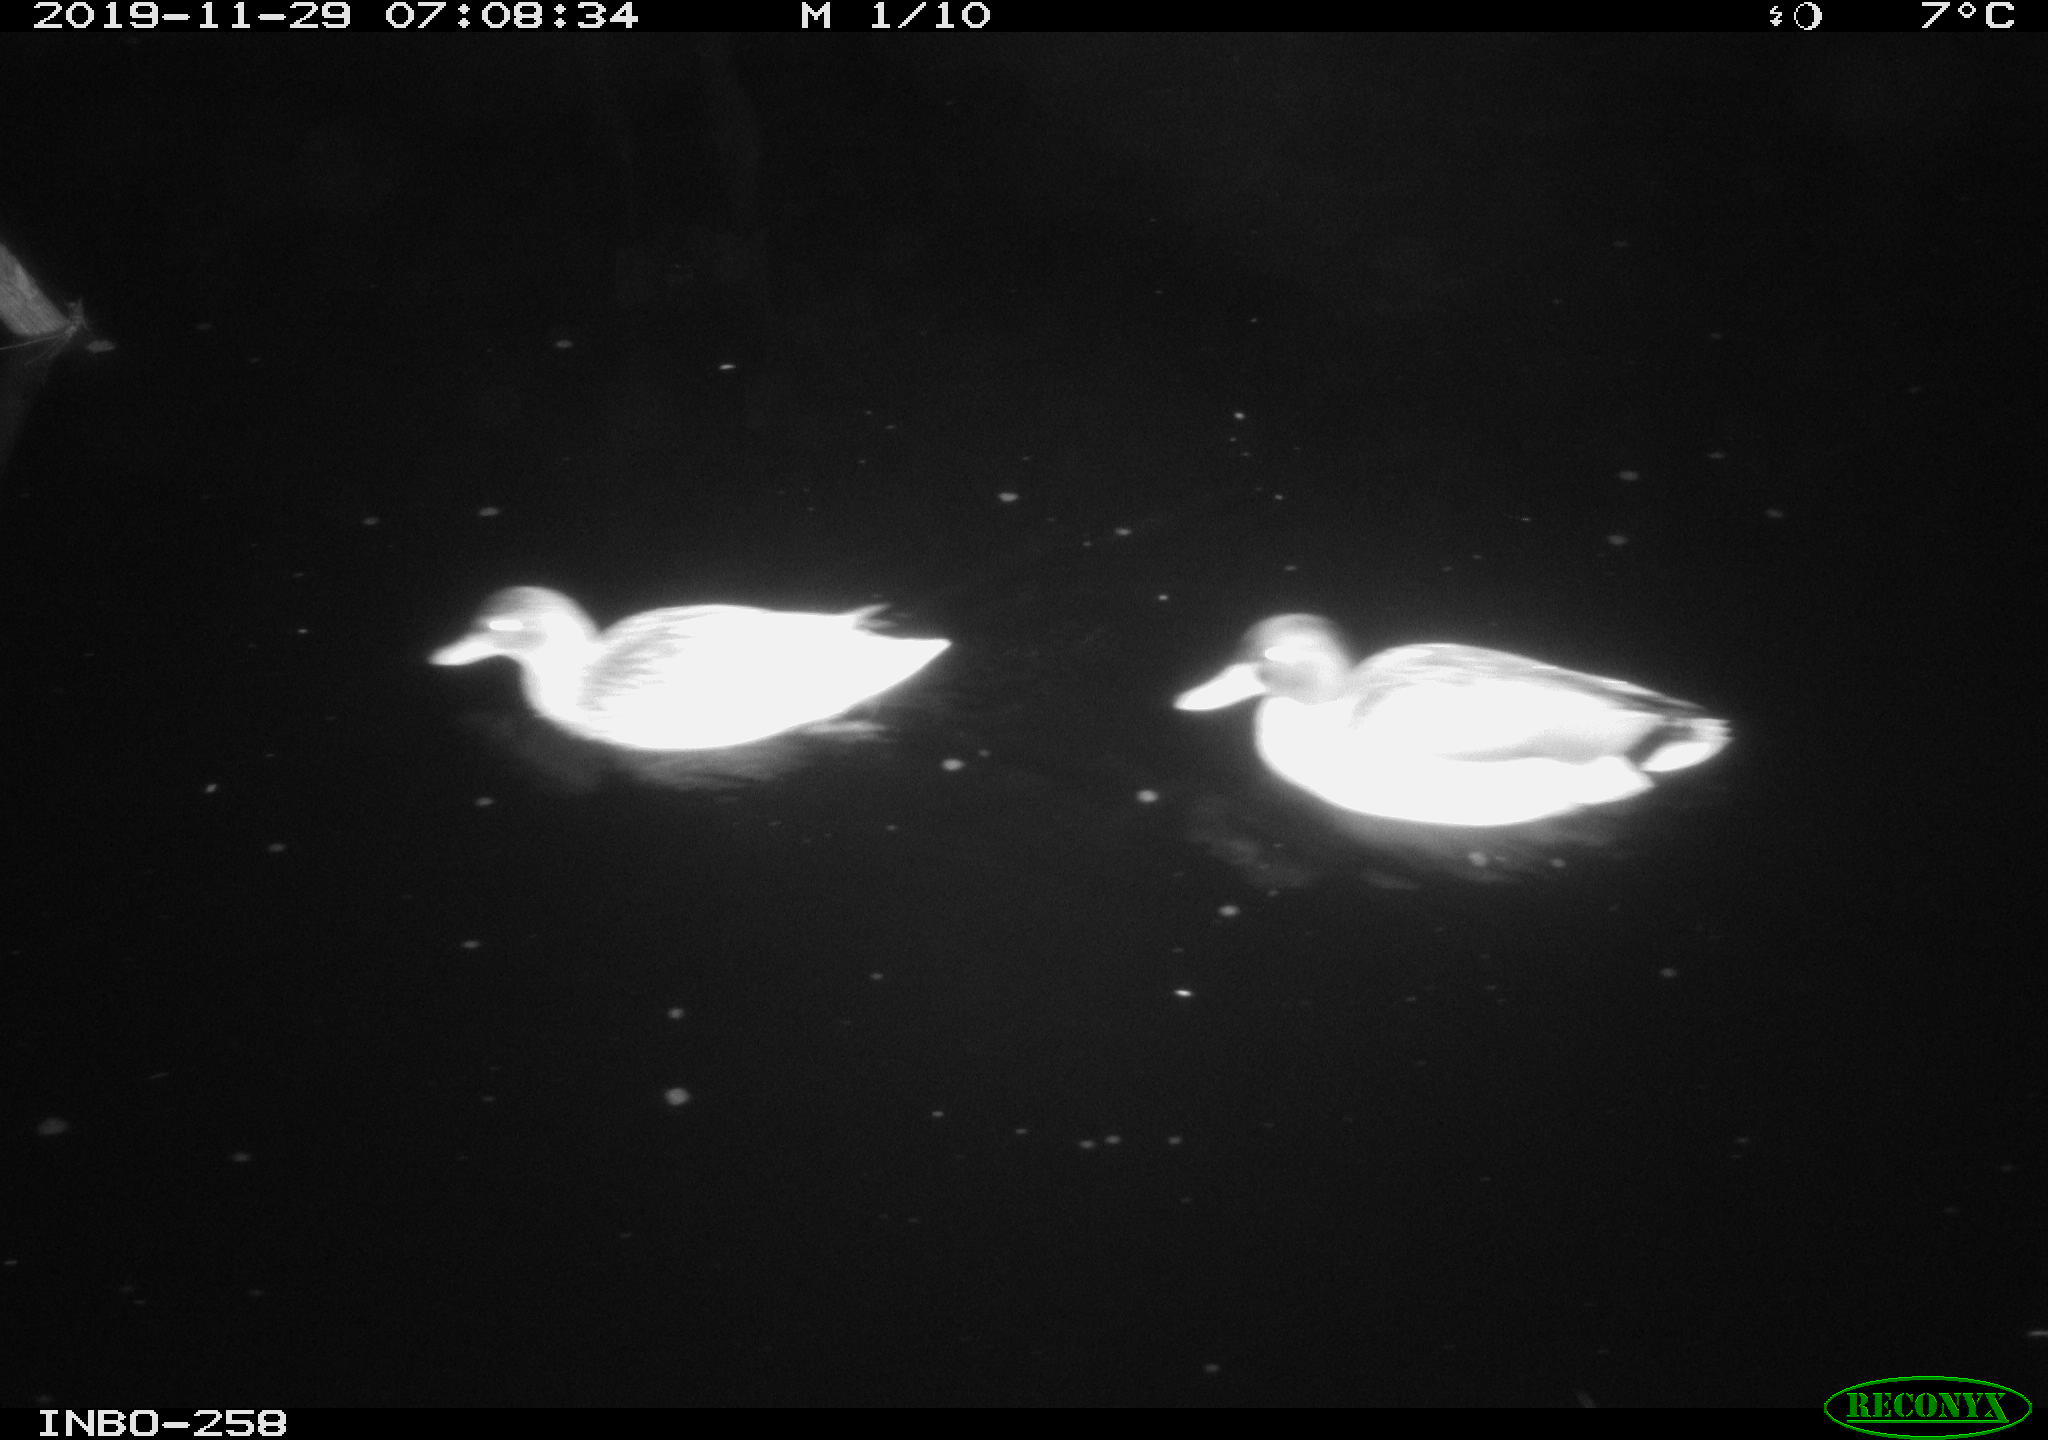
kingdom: Animalia
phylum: Chordata
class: Aves
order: Anseriformes
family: Anatidae
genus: Anas
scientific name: Anas platyrhynchos
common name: Mallard
